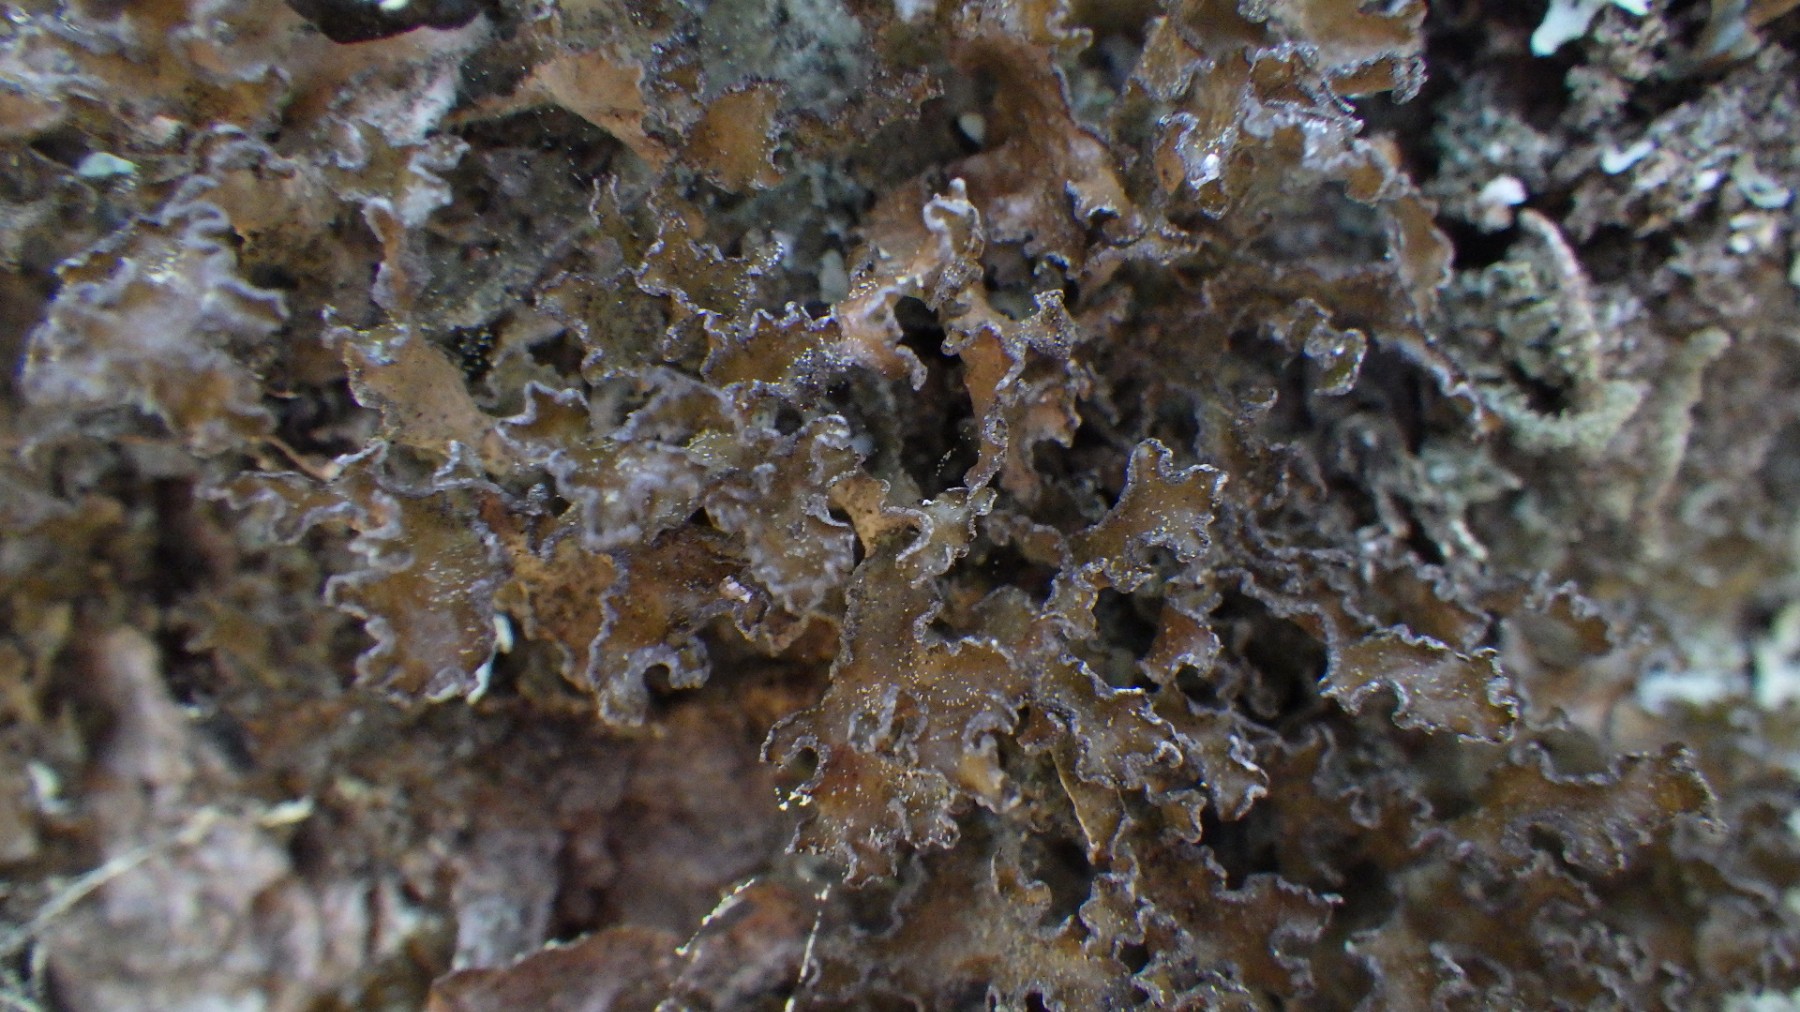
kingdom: Fungi
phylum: Ascomycota
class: Lecanoromycetes
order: Lecanorales
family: Parmeliaceae
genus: Nephromopsis
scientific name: Nephromopsis chlorophylla
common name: olivenbrun kruslav
